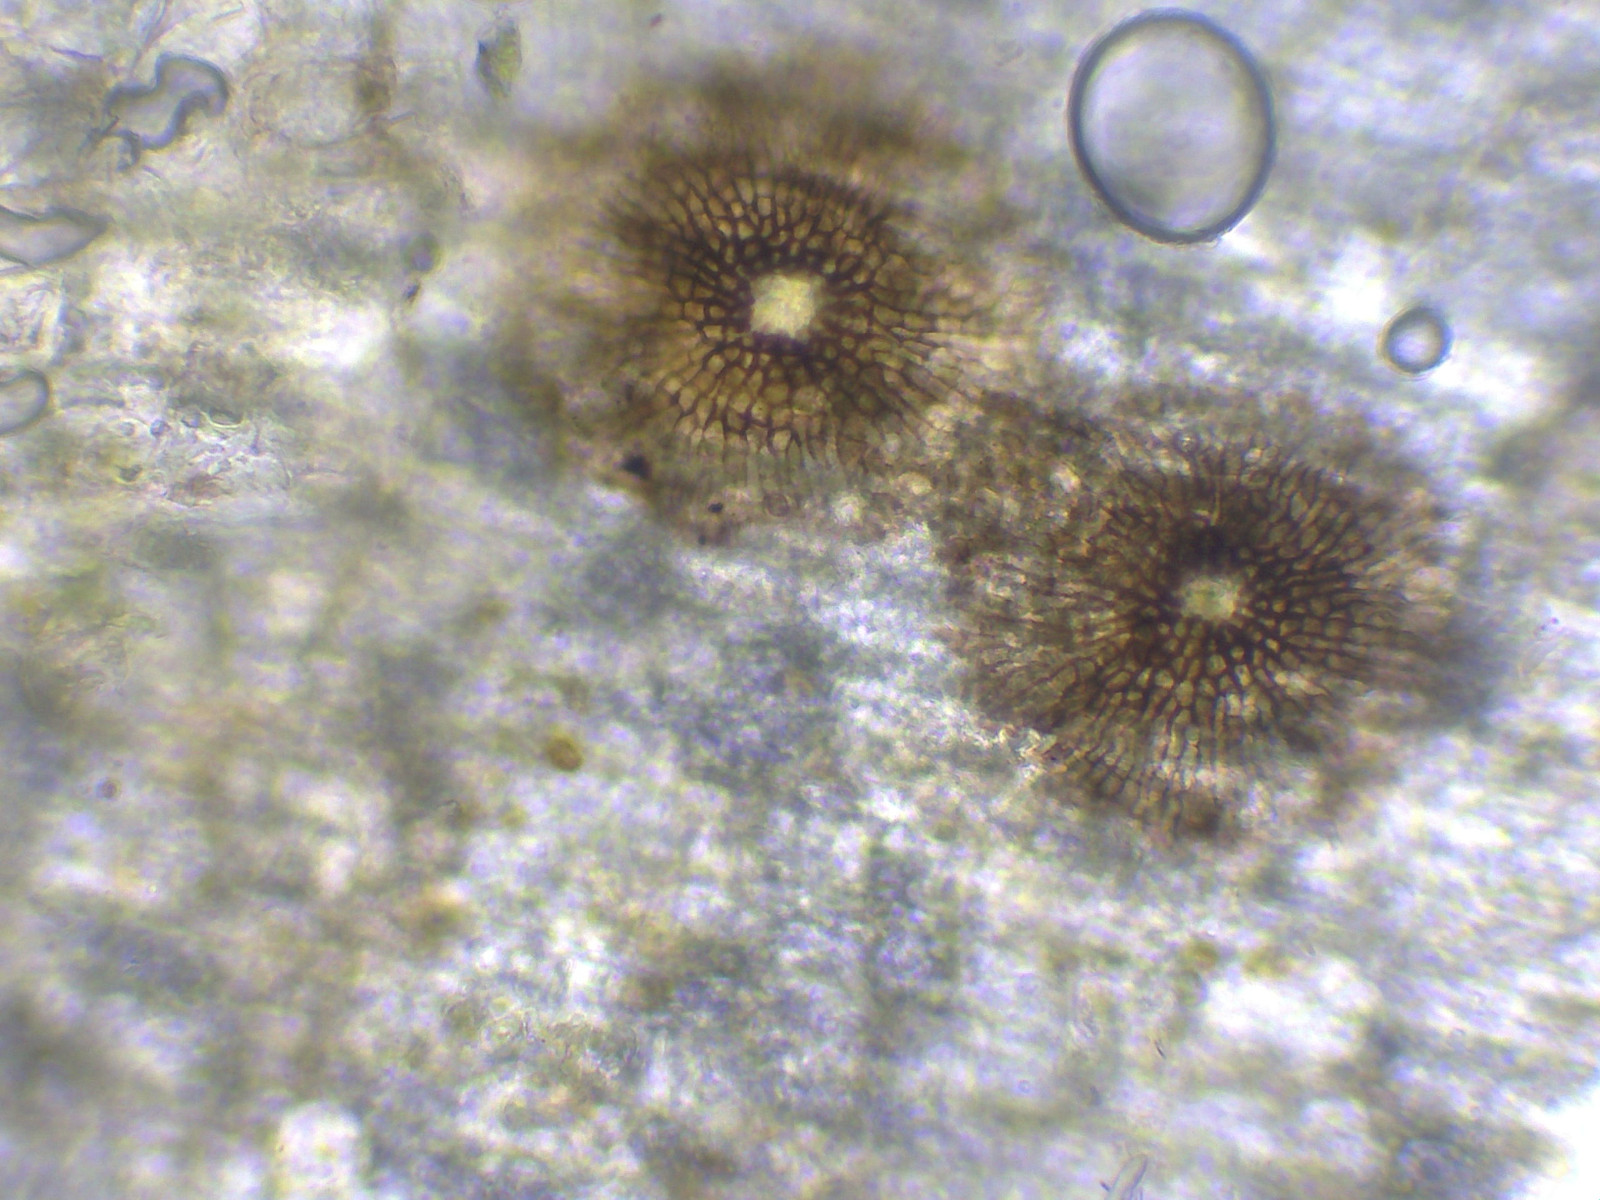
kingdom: Fungi
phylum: Ascomycota
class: Dothideomycetes
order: Microthyriales
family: Microthyriaceae
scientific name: Microthyriaceae
